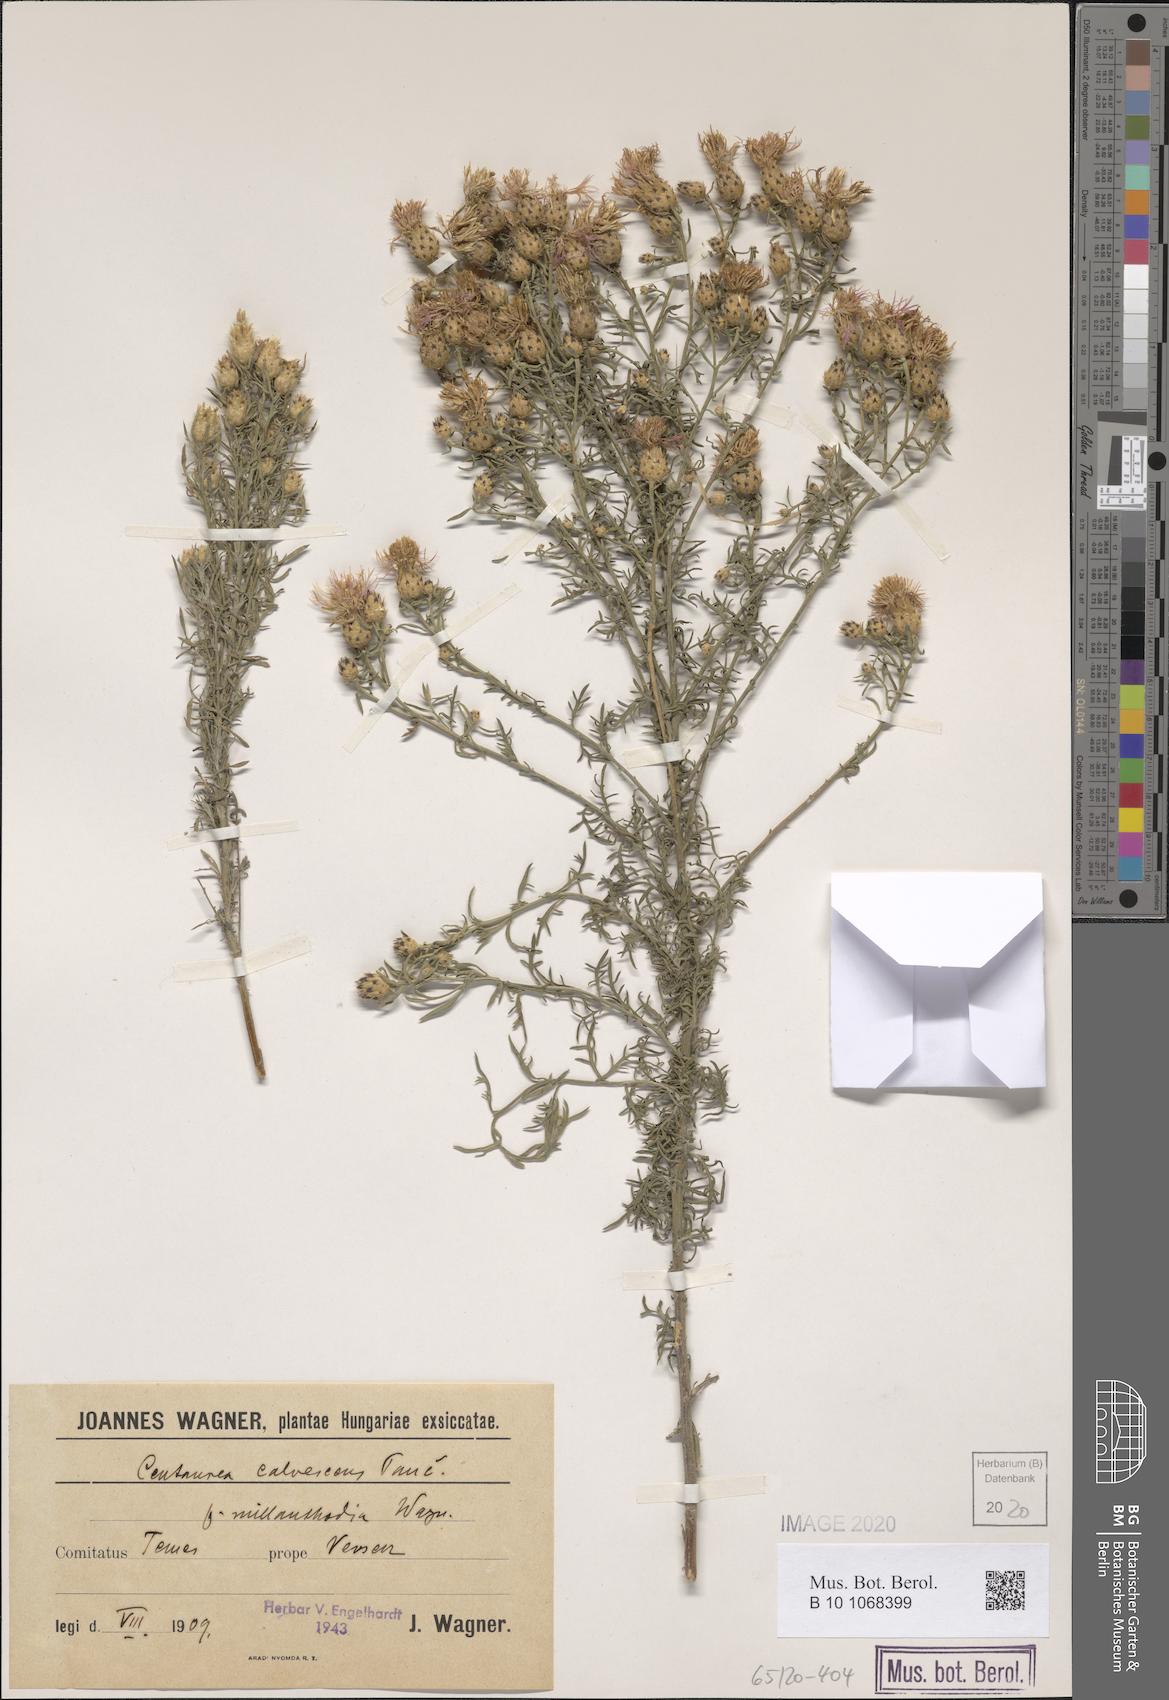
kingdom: Plantae
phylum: Tracheophyta
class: Magnoliopsida
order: Asterales
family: Asteraceae
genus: Centaurea
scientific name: Centaurea reichenbachii
